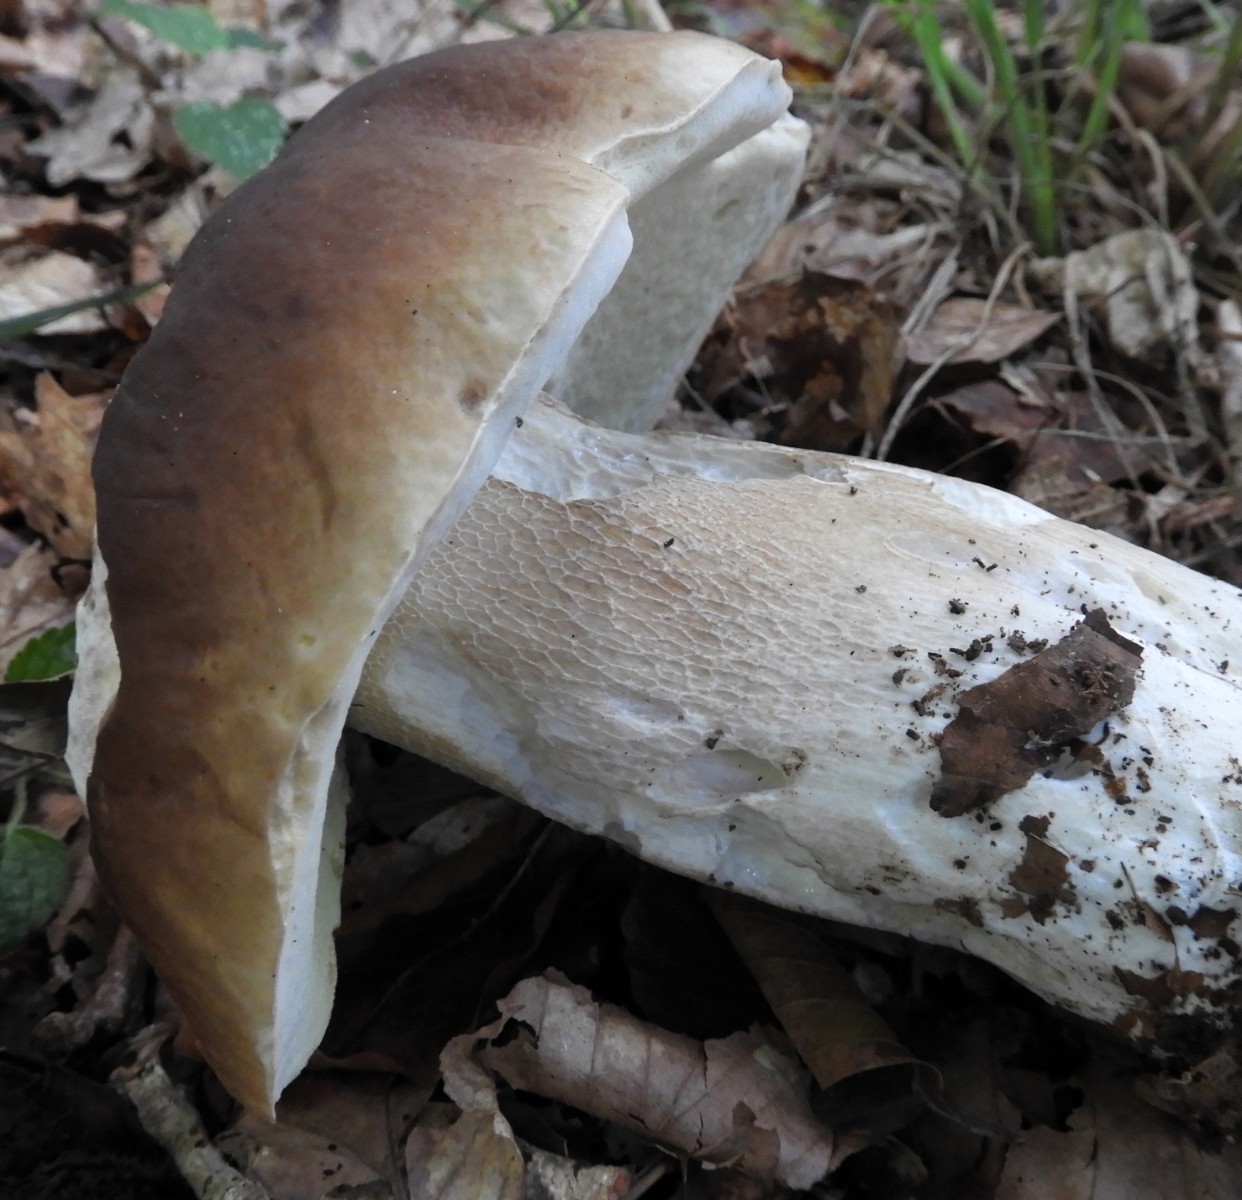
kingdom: Fungi
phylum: Basidiomycota
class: Agaricomycetes
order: Boletales
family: Boletaceae
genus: Boletus
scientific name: Boletus edulis
